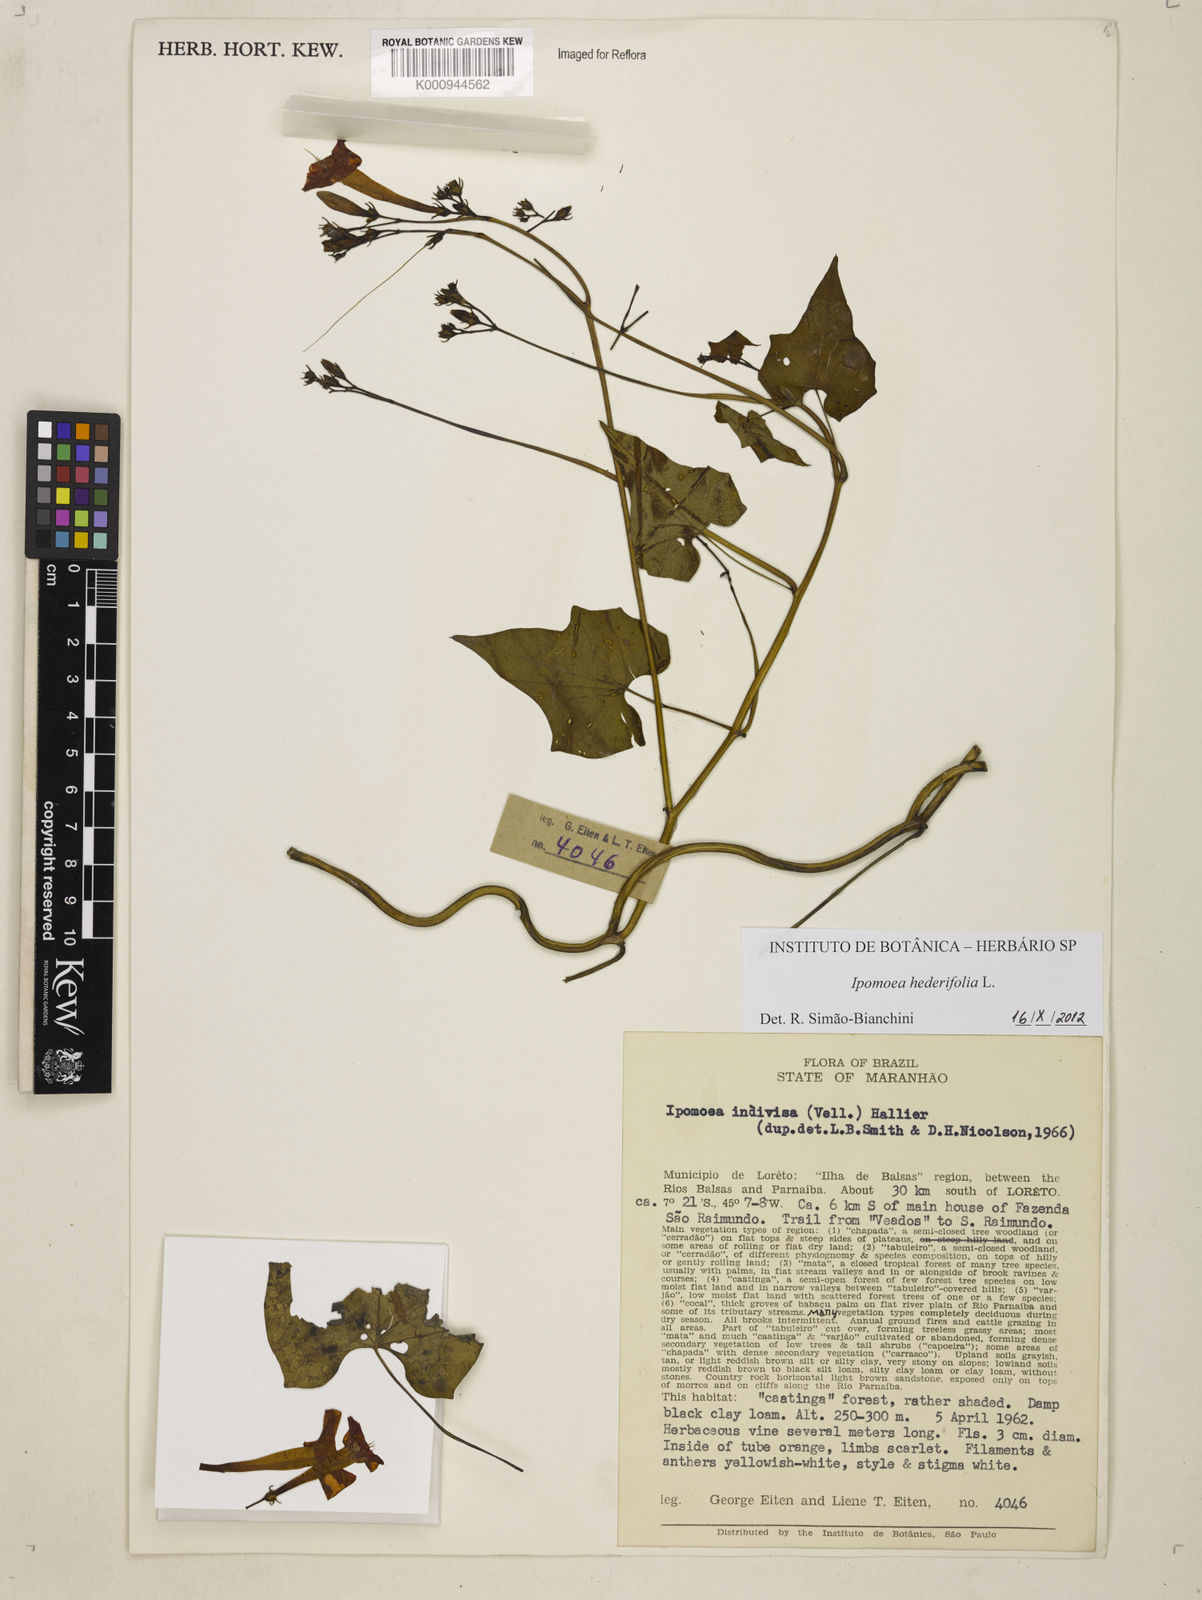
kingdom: Plantae
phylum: Tracheophyta
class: Magnoliopsida
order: Solanales
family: Convolvulaceae
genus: Ipomoea
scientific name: Ipomoea hederifolia
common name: Ivy-leaf morning-glory
